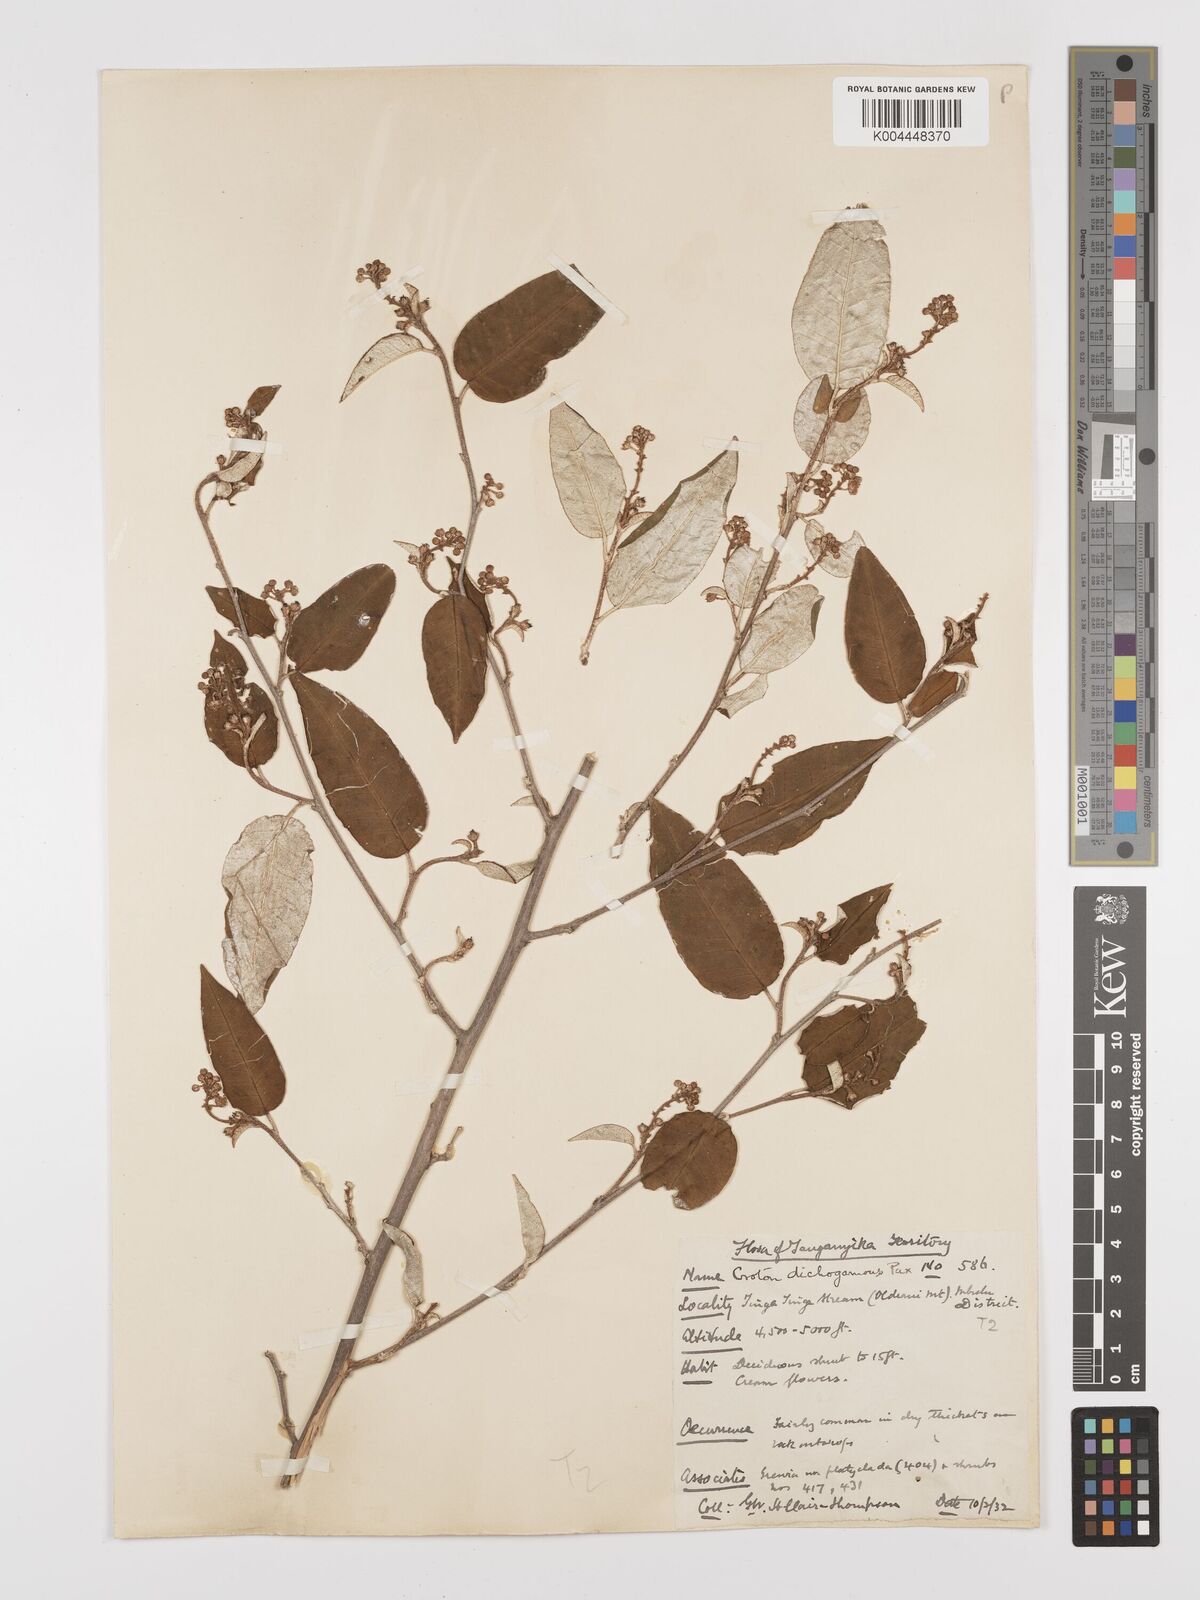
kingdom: Plantae
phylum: Tracheophyta
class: Magnoliopsida
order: Malpighiales
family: Euphorbiaceae
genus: Croton
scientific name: Croton dichogamus
